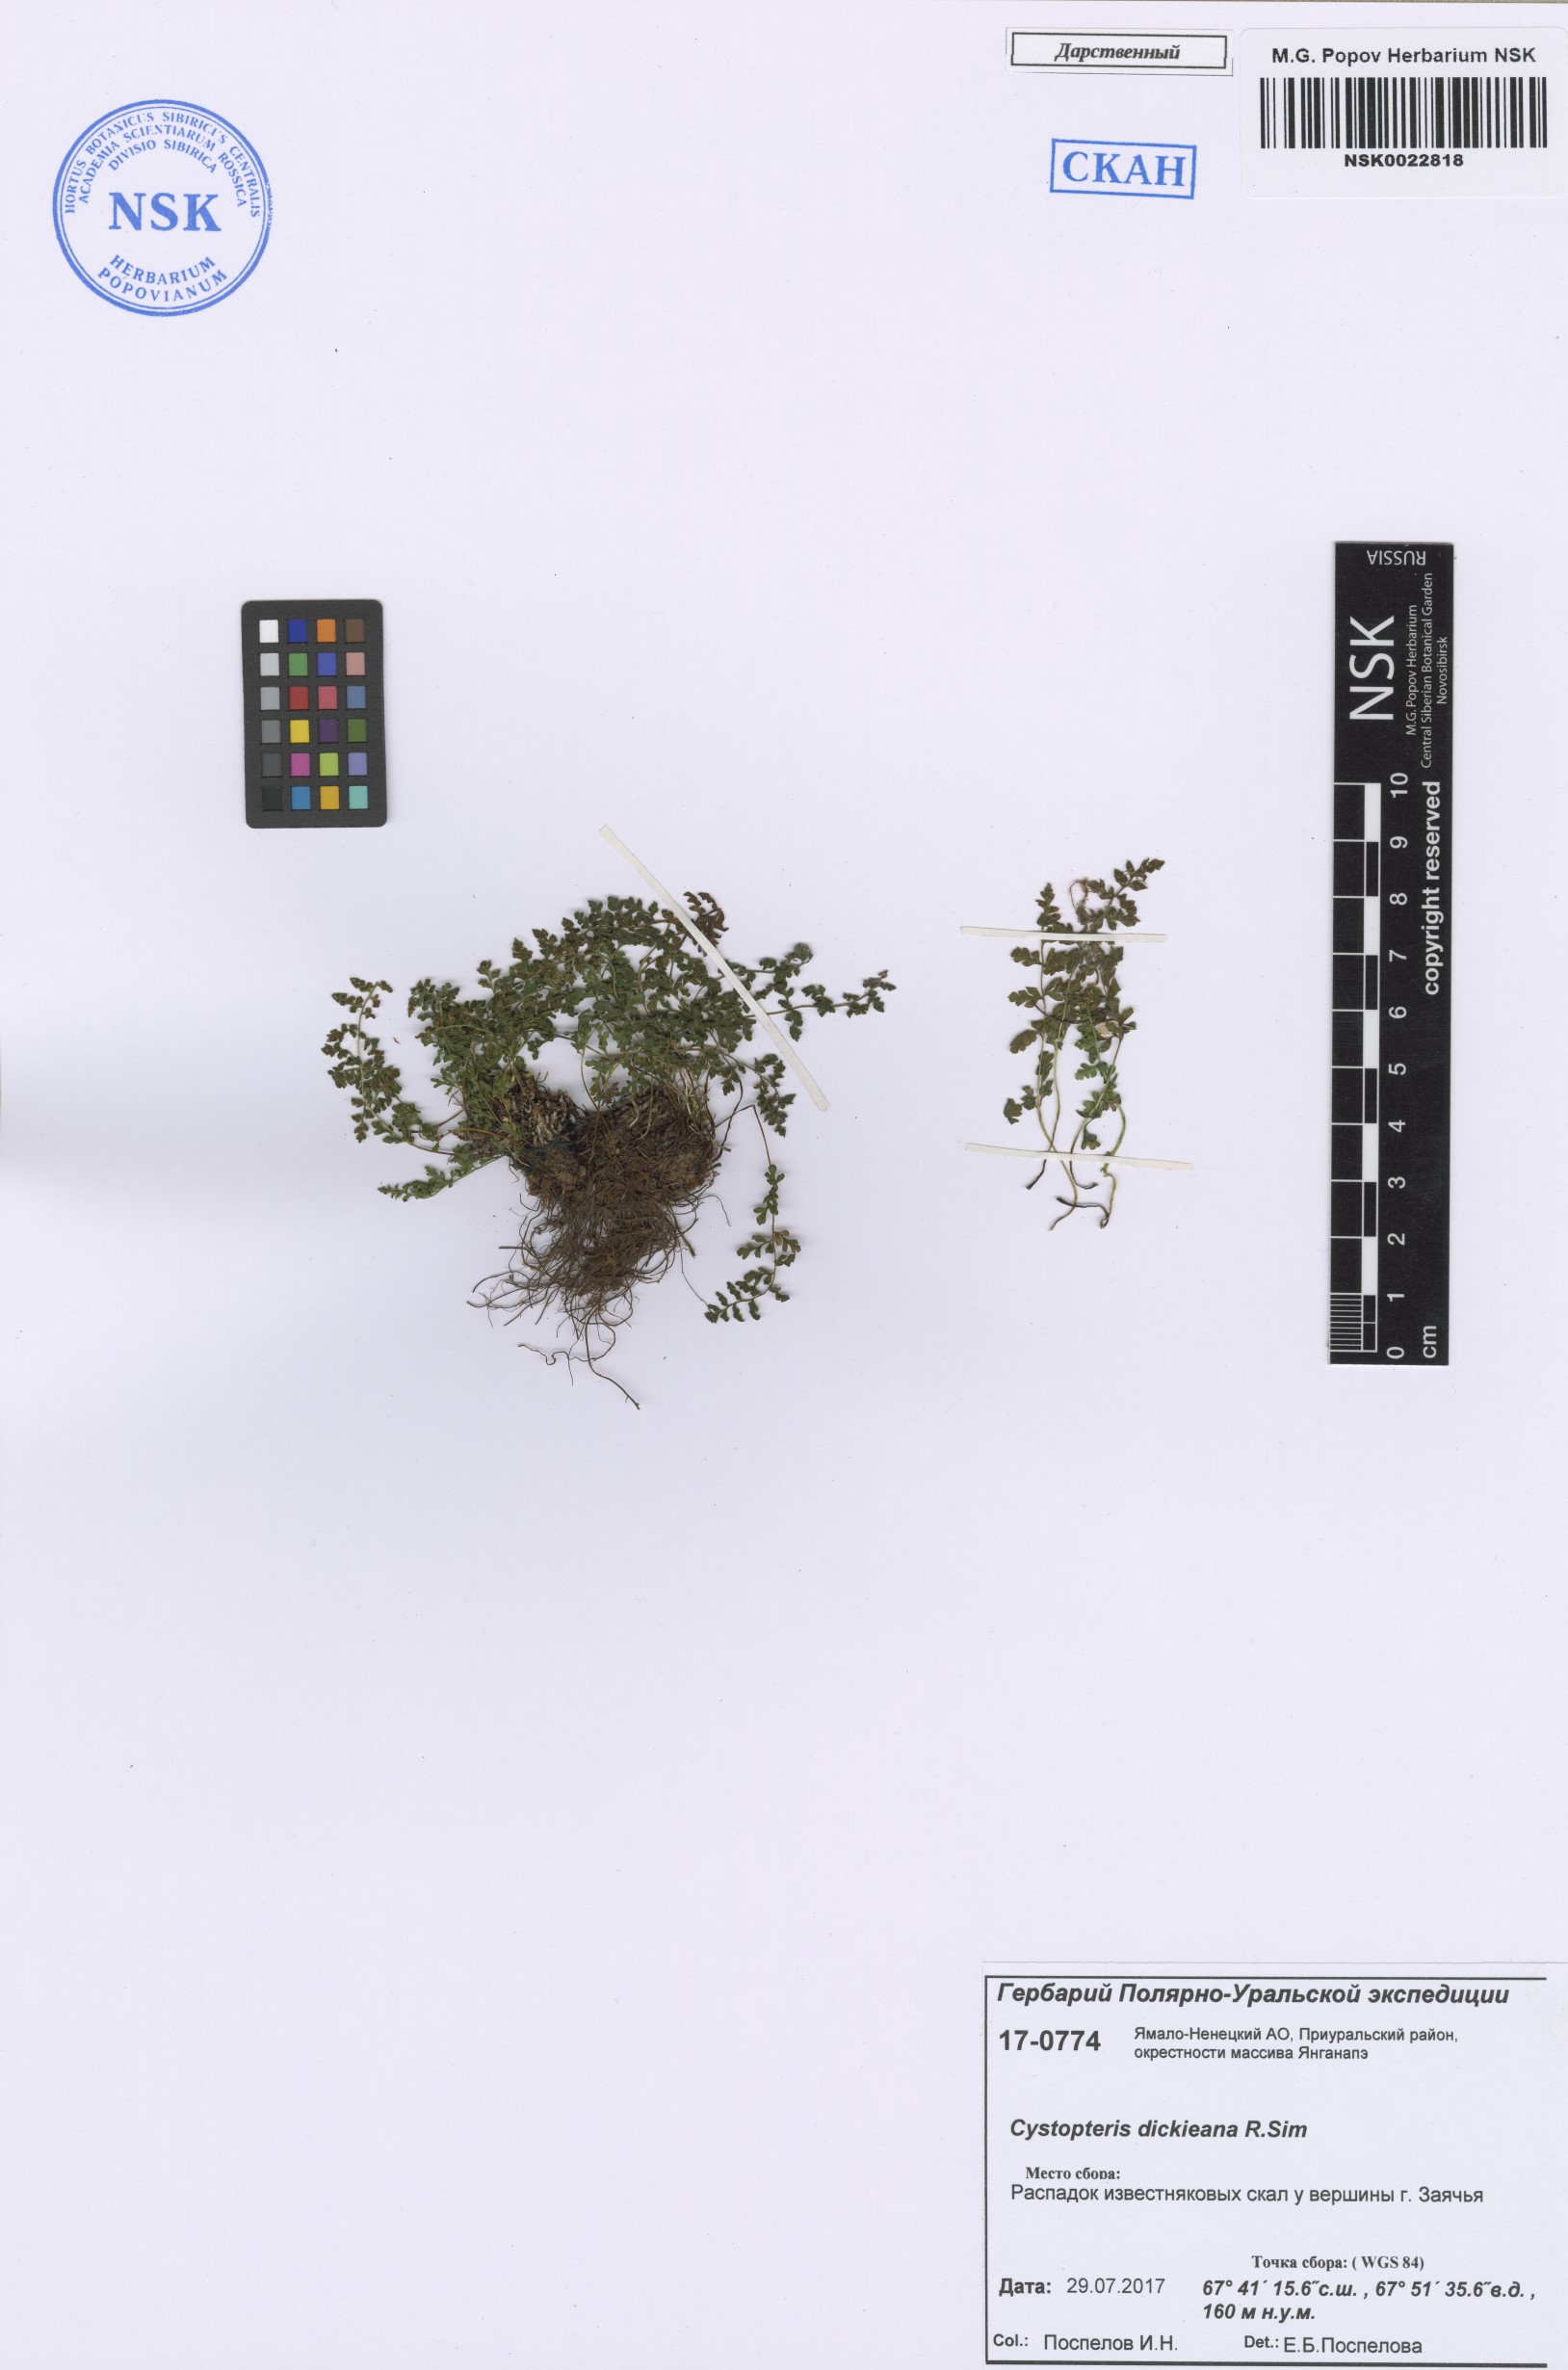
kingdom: Plantae
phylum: Tracheophyta
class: Polypodiopsida
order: Polypodiales
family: Cystopteridaceae
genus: Cystopteris
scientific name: Cystopteris dickieana
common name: Dickie's bladder-fern
